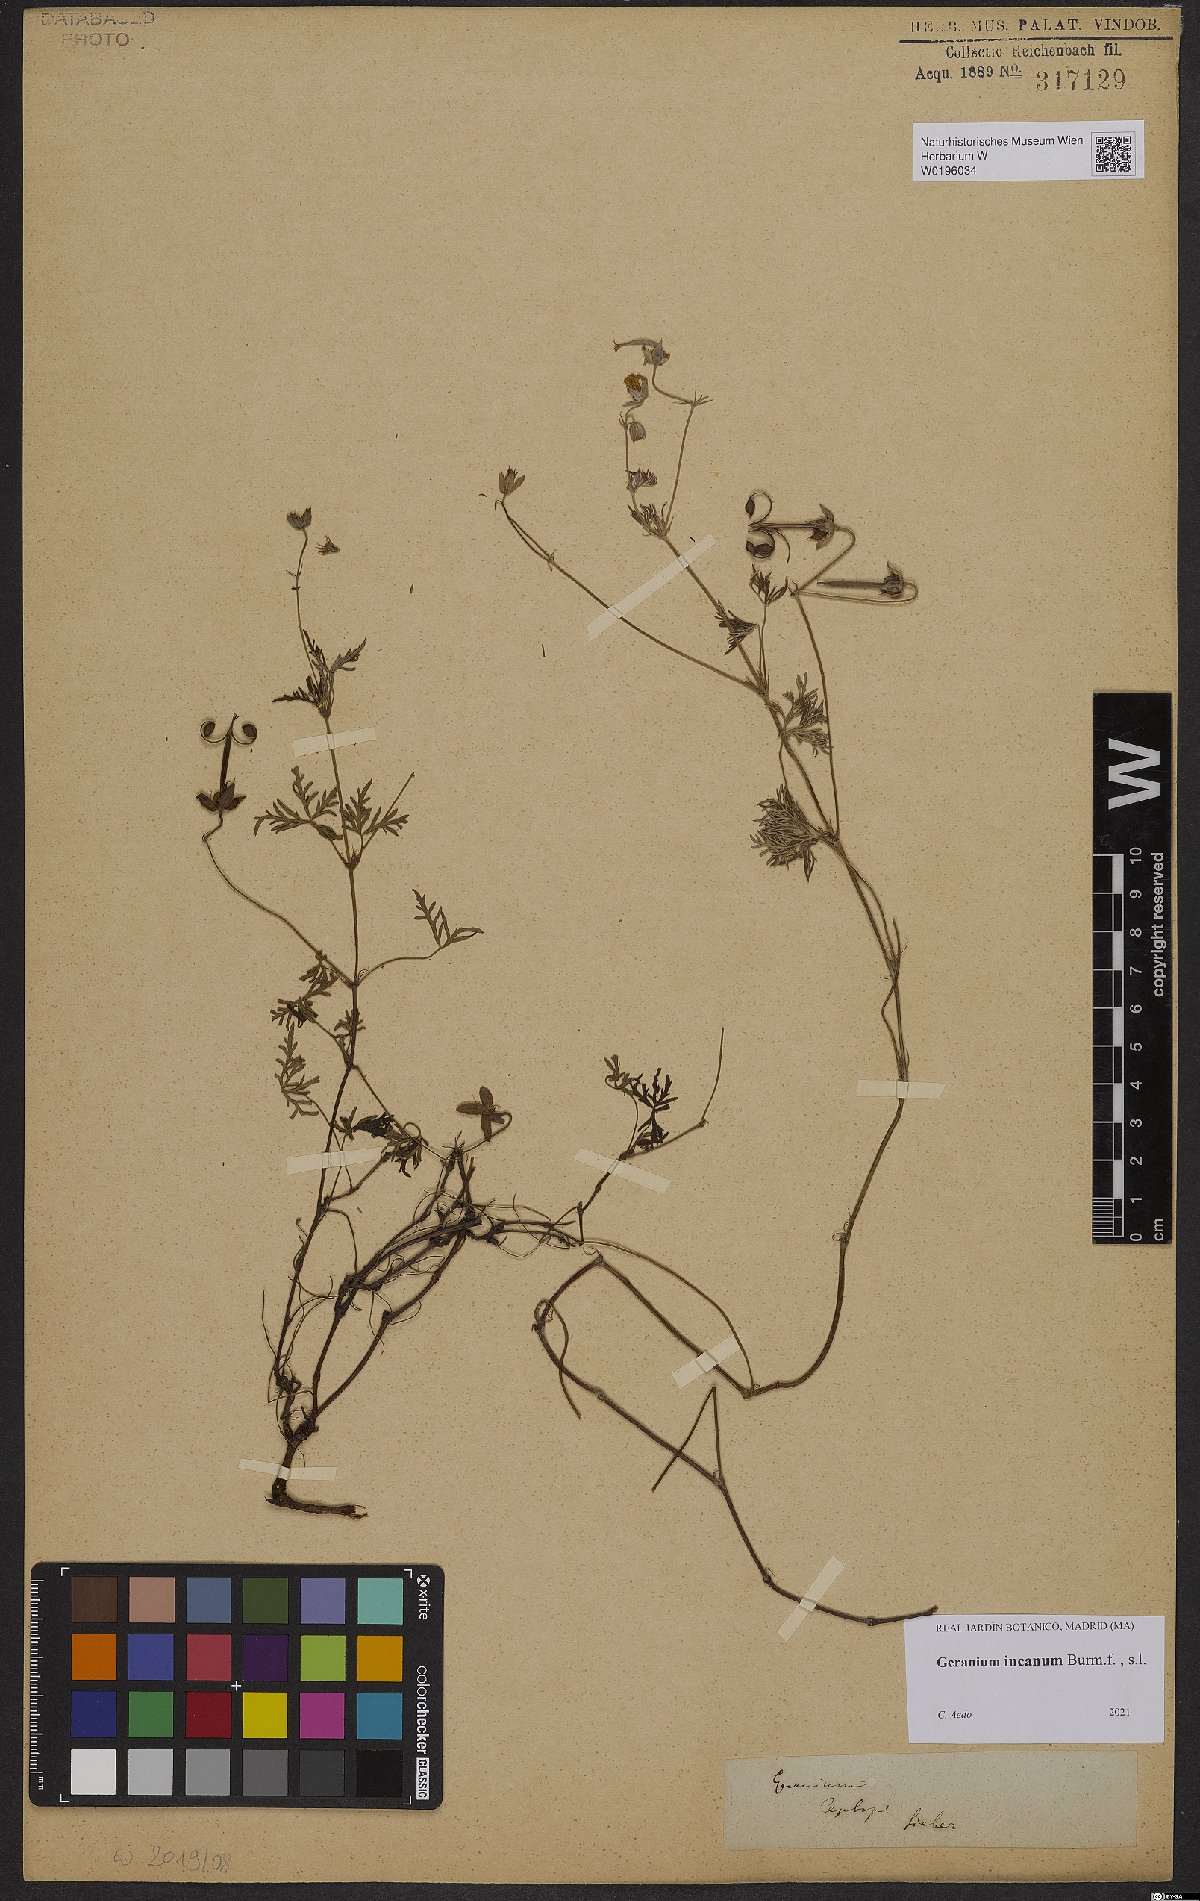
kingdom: Plantae
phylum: Tracheophyta
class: Magnoliopsida
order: Geraniales
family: Geraniaceae
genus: Geranium
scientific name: Geranium incanum
